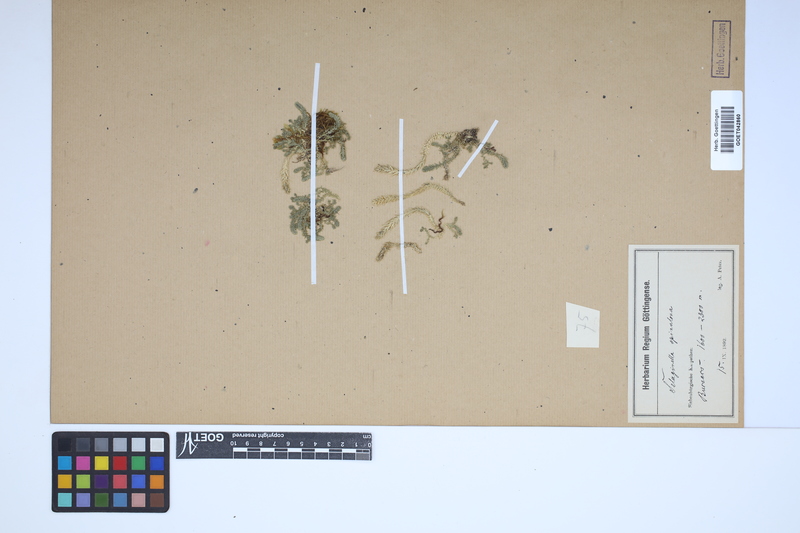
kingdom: Plantae
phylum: Tracheophyta
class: Lycopodiopsida
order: Selaginellales
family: Selaginellaceae
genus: Selaginella
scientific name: Selaginella selaginoides
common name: Prickly mountain-moss
